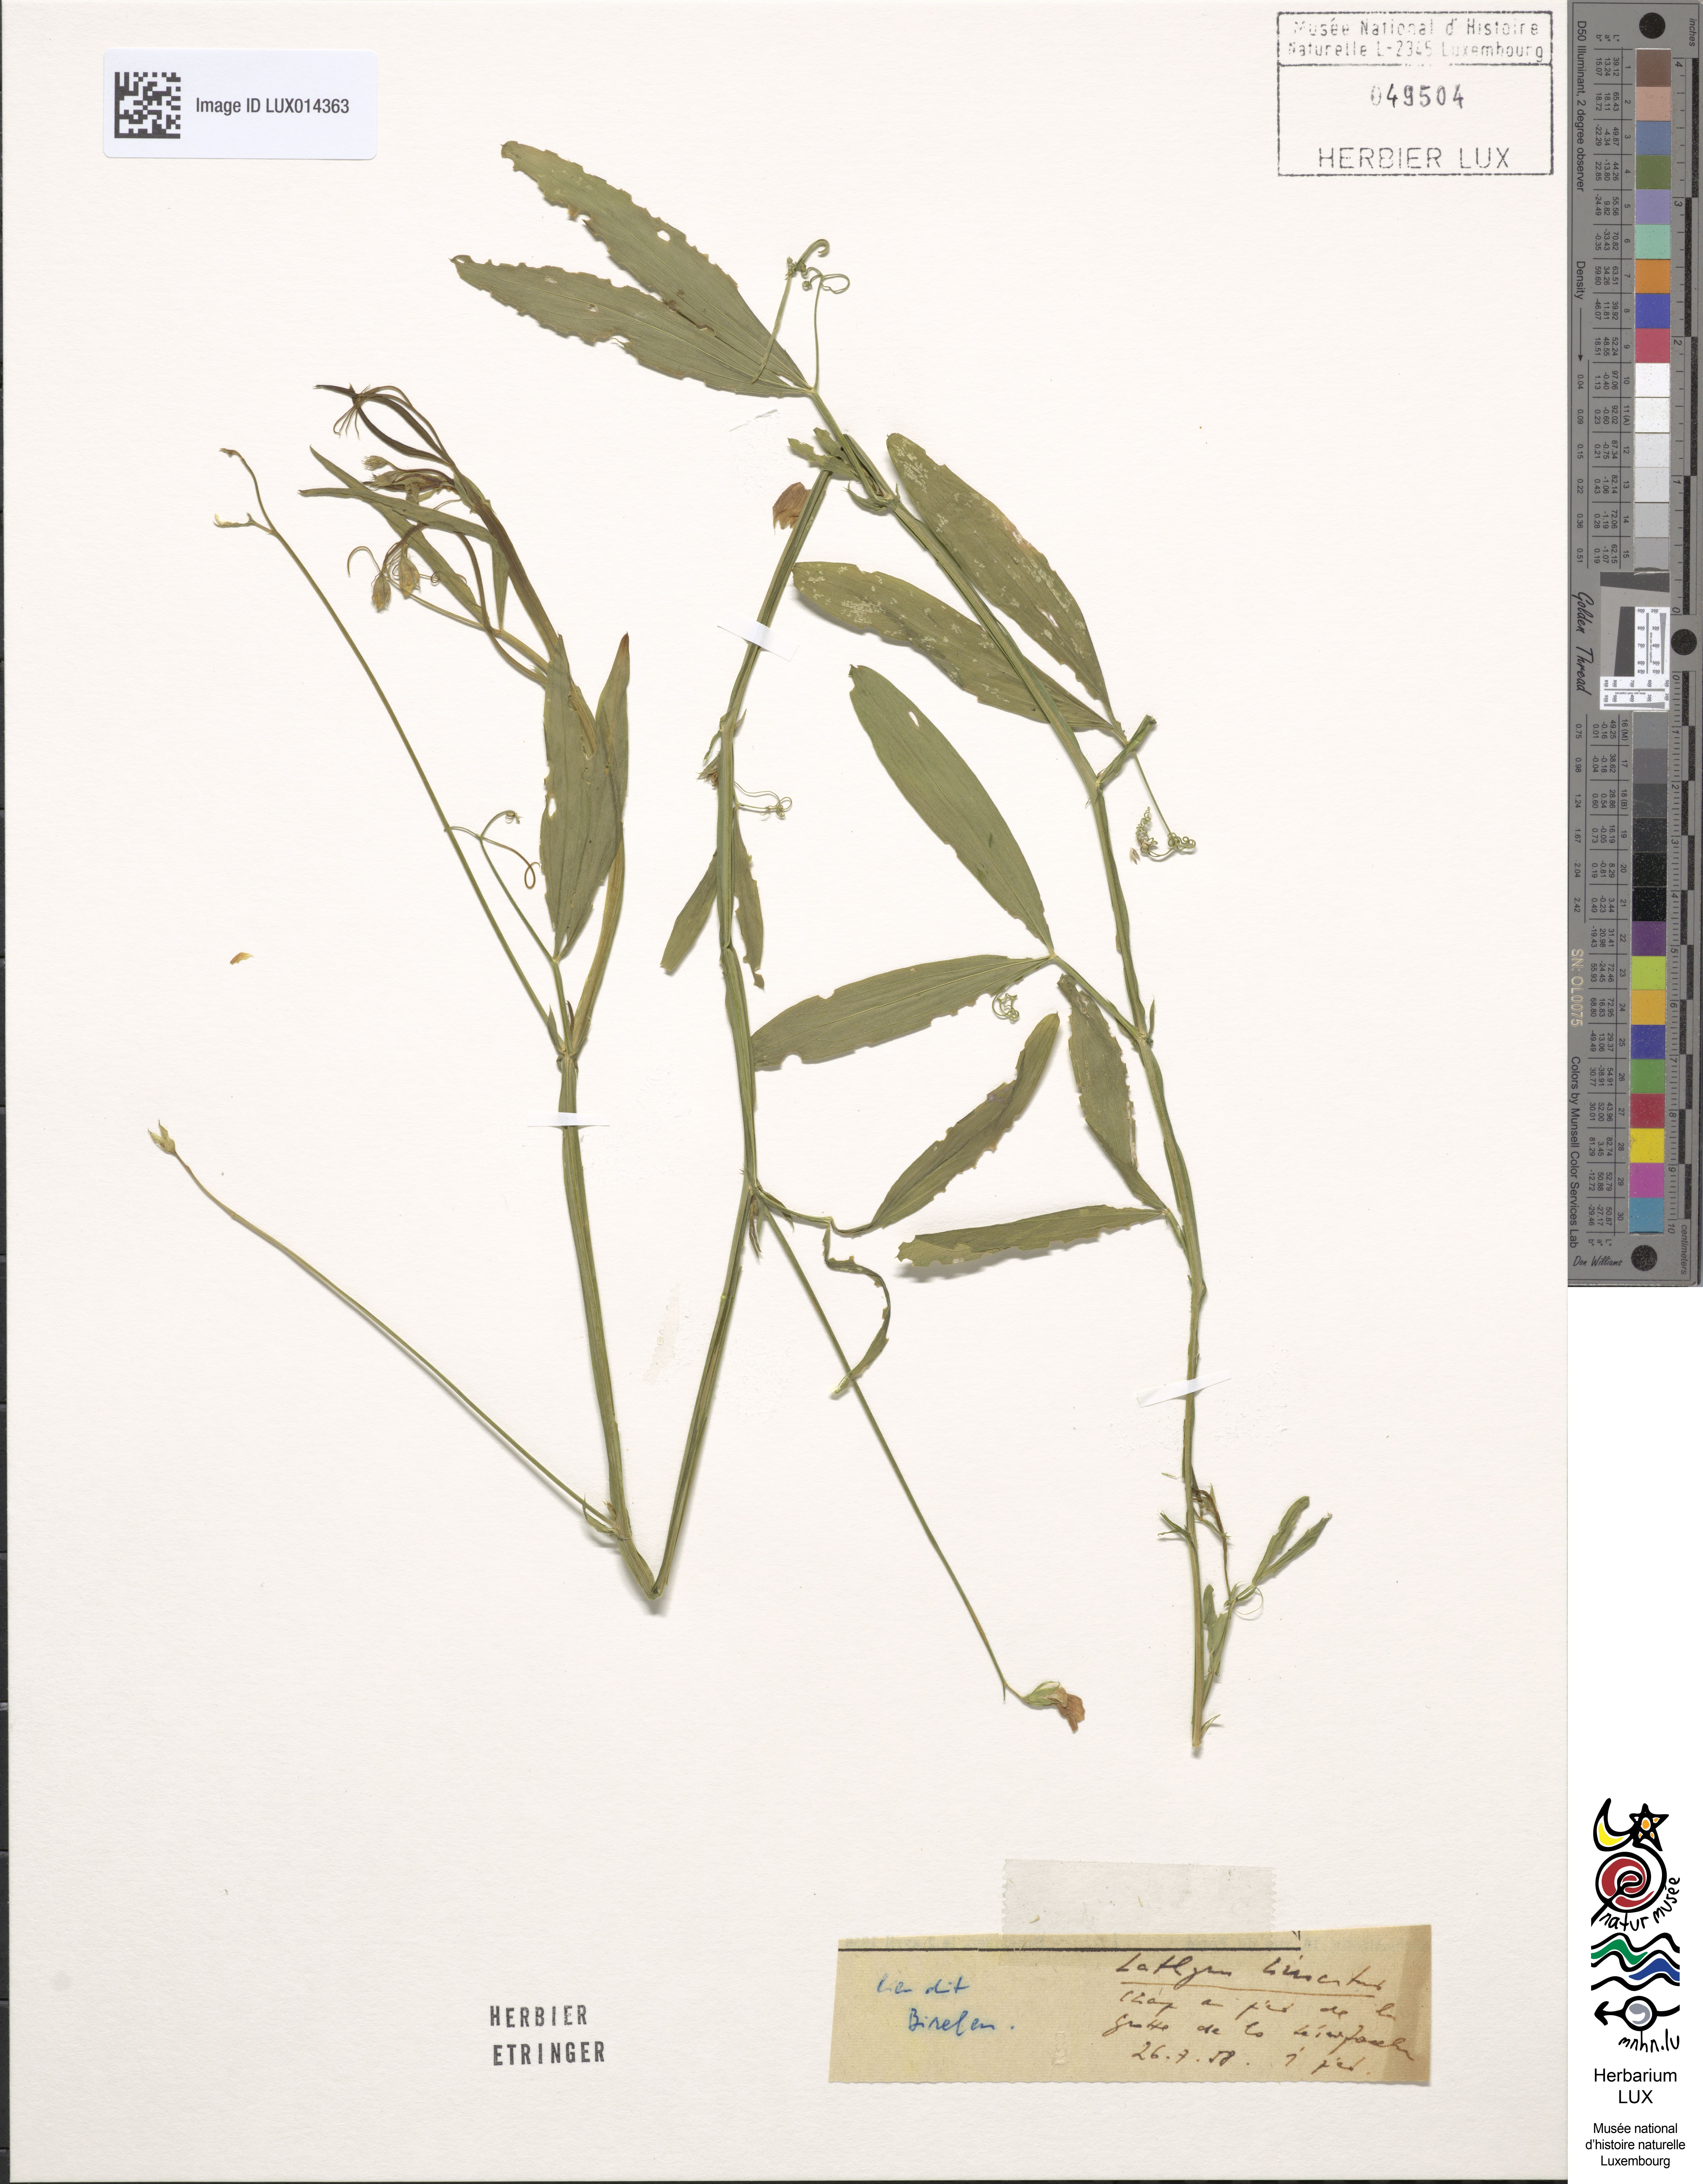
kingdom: Plantae
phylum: Tracheophyta
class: Magnoliopsida
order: Fabales
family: Fabaceae
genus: Lathyrus
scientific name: Lathyrus hirsutus
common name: Hairy vetchling
